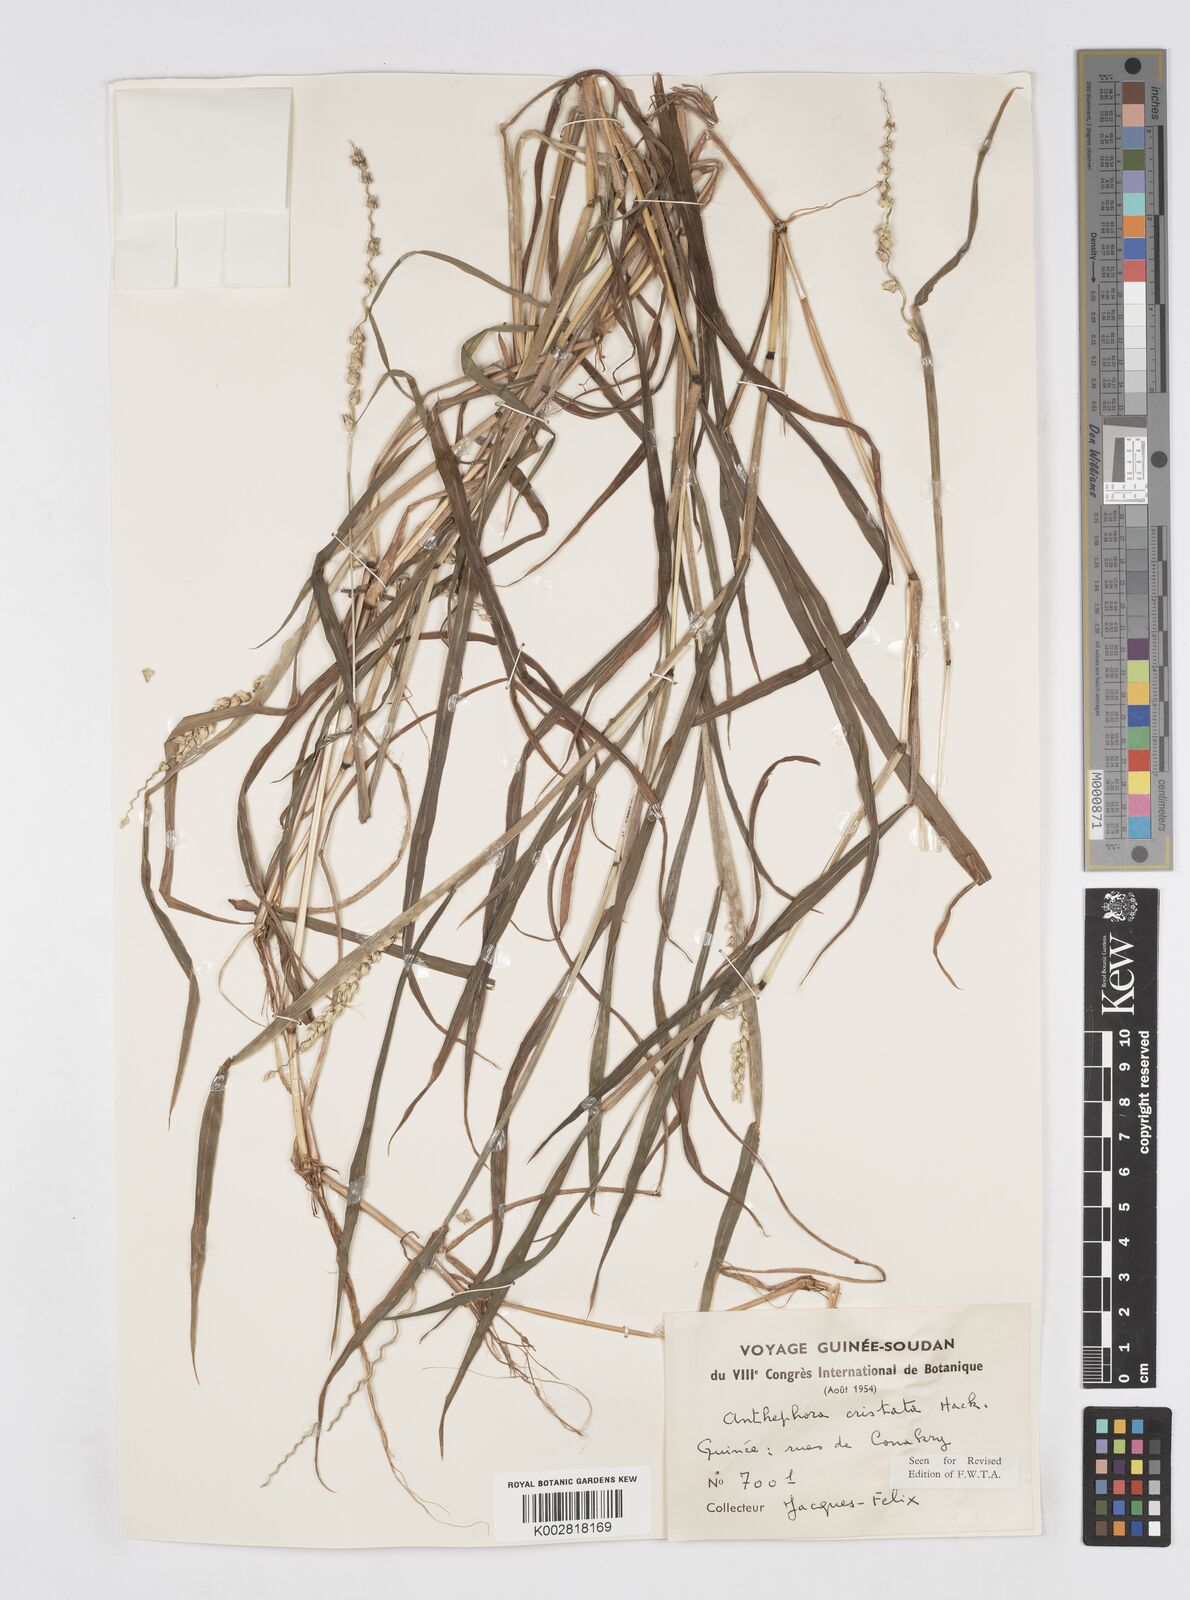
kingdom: Plantae
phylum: Tracheophyta
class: Liliopsida
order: Poales
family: Poaceae
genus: Anthephora
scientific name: Anthephora cristata
